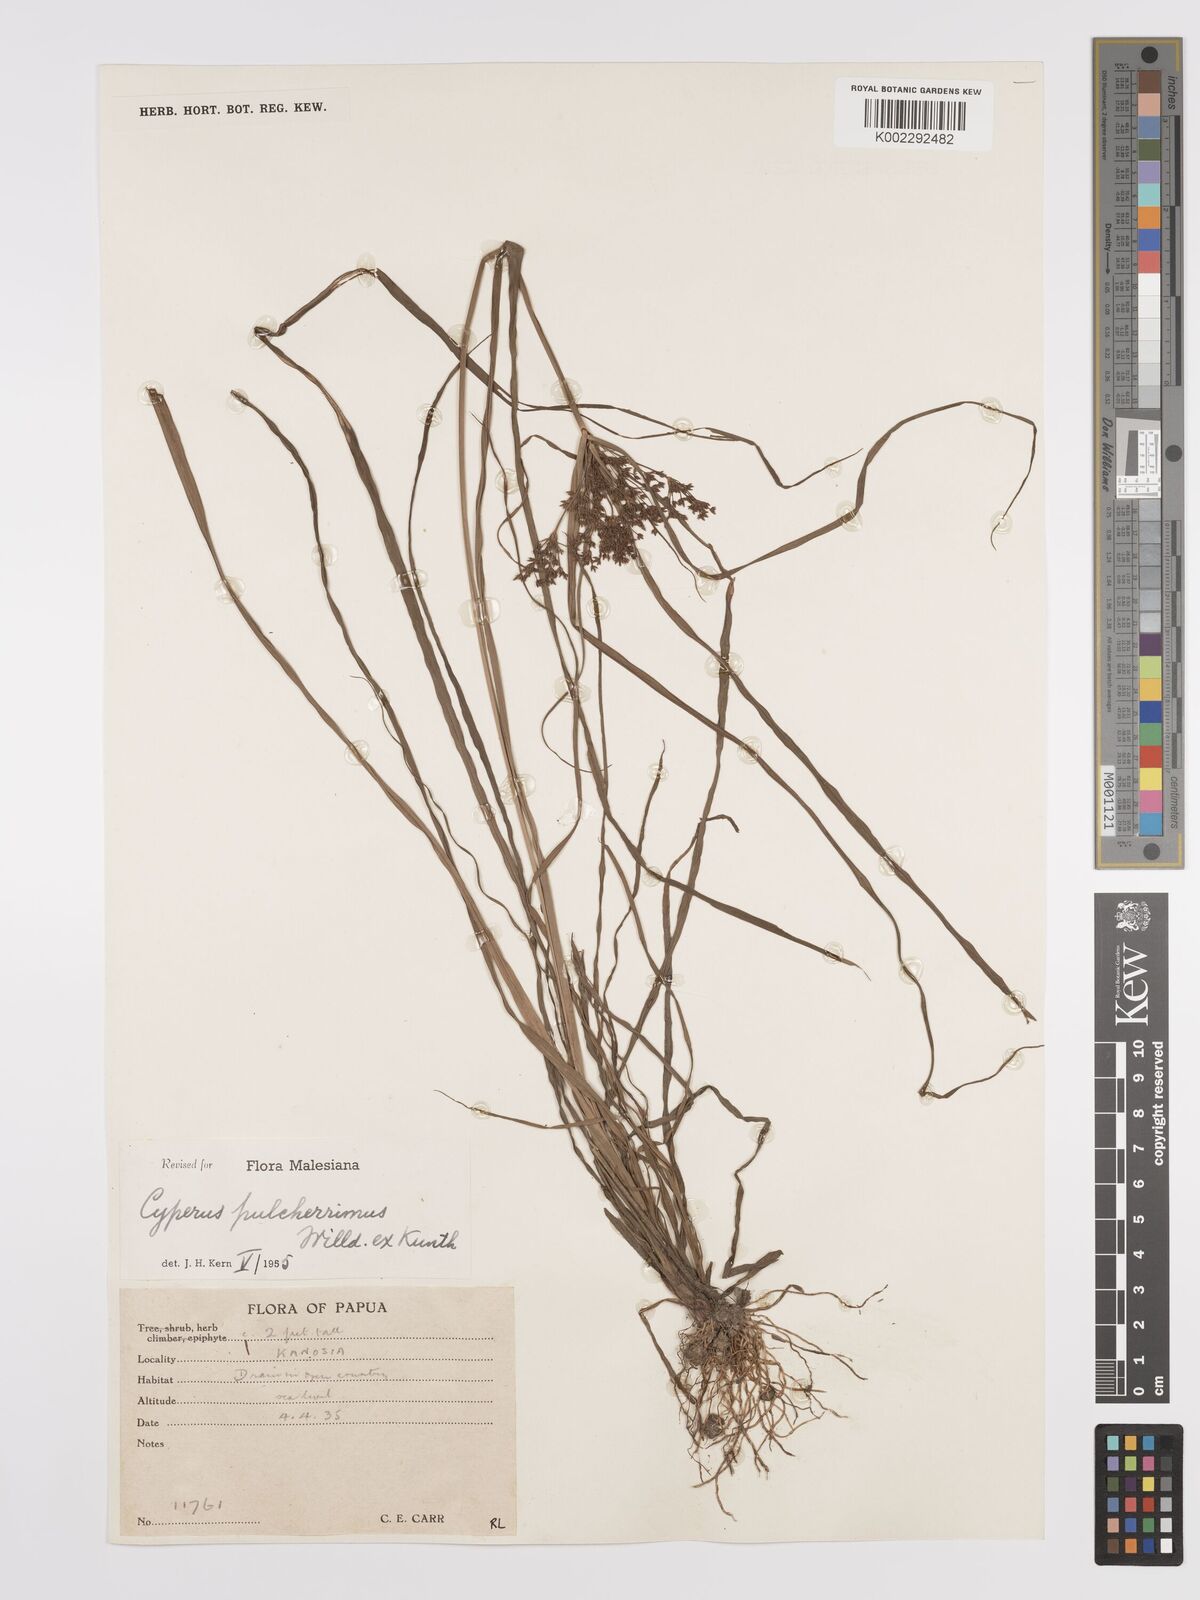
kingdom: Plantae
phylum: Tracheophyta
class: Liliopsida
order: Poales
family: Cyperaceae
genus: Cyperus
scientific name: Cyperus pulcherrimus
